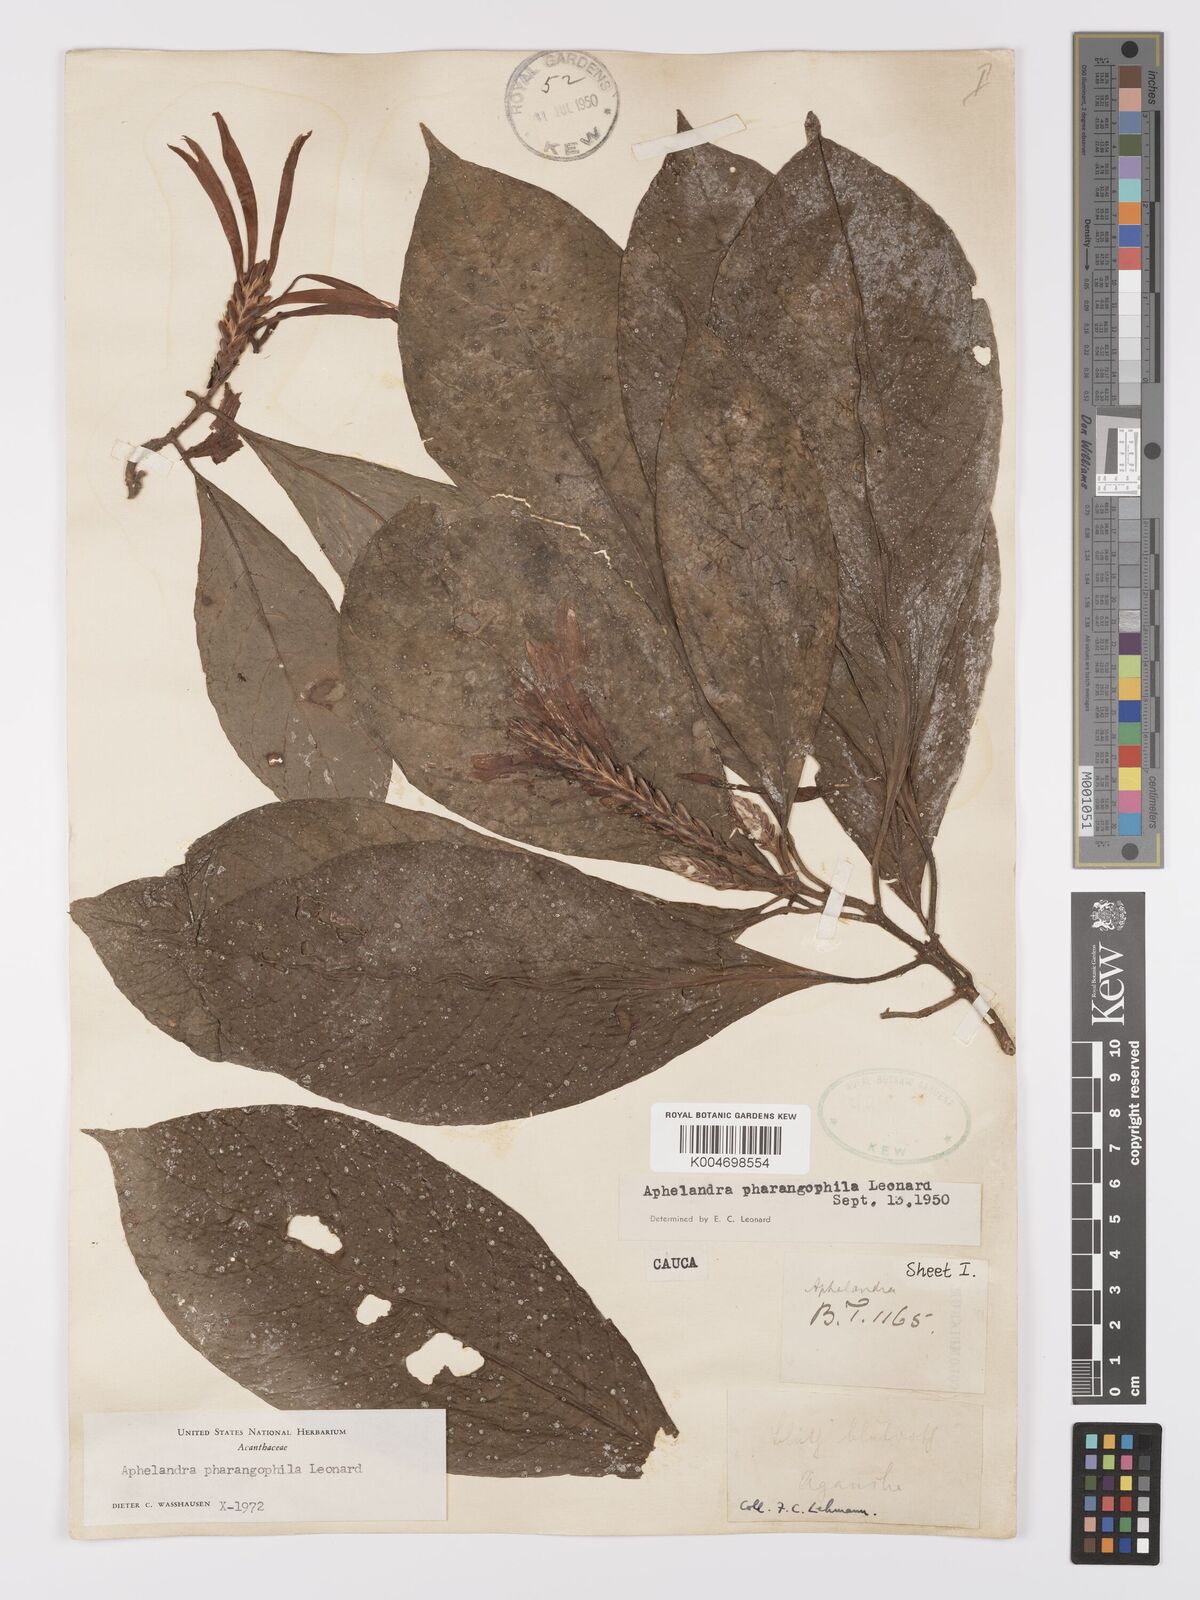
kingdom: Plantae
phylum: Tracheophyta
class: Magnoliopsida
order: Lamiales
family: Acanthaceae
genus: Aphelandra
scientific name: Aphelandra pharangophila
